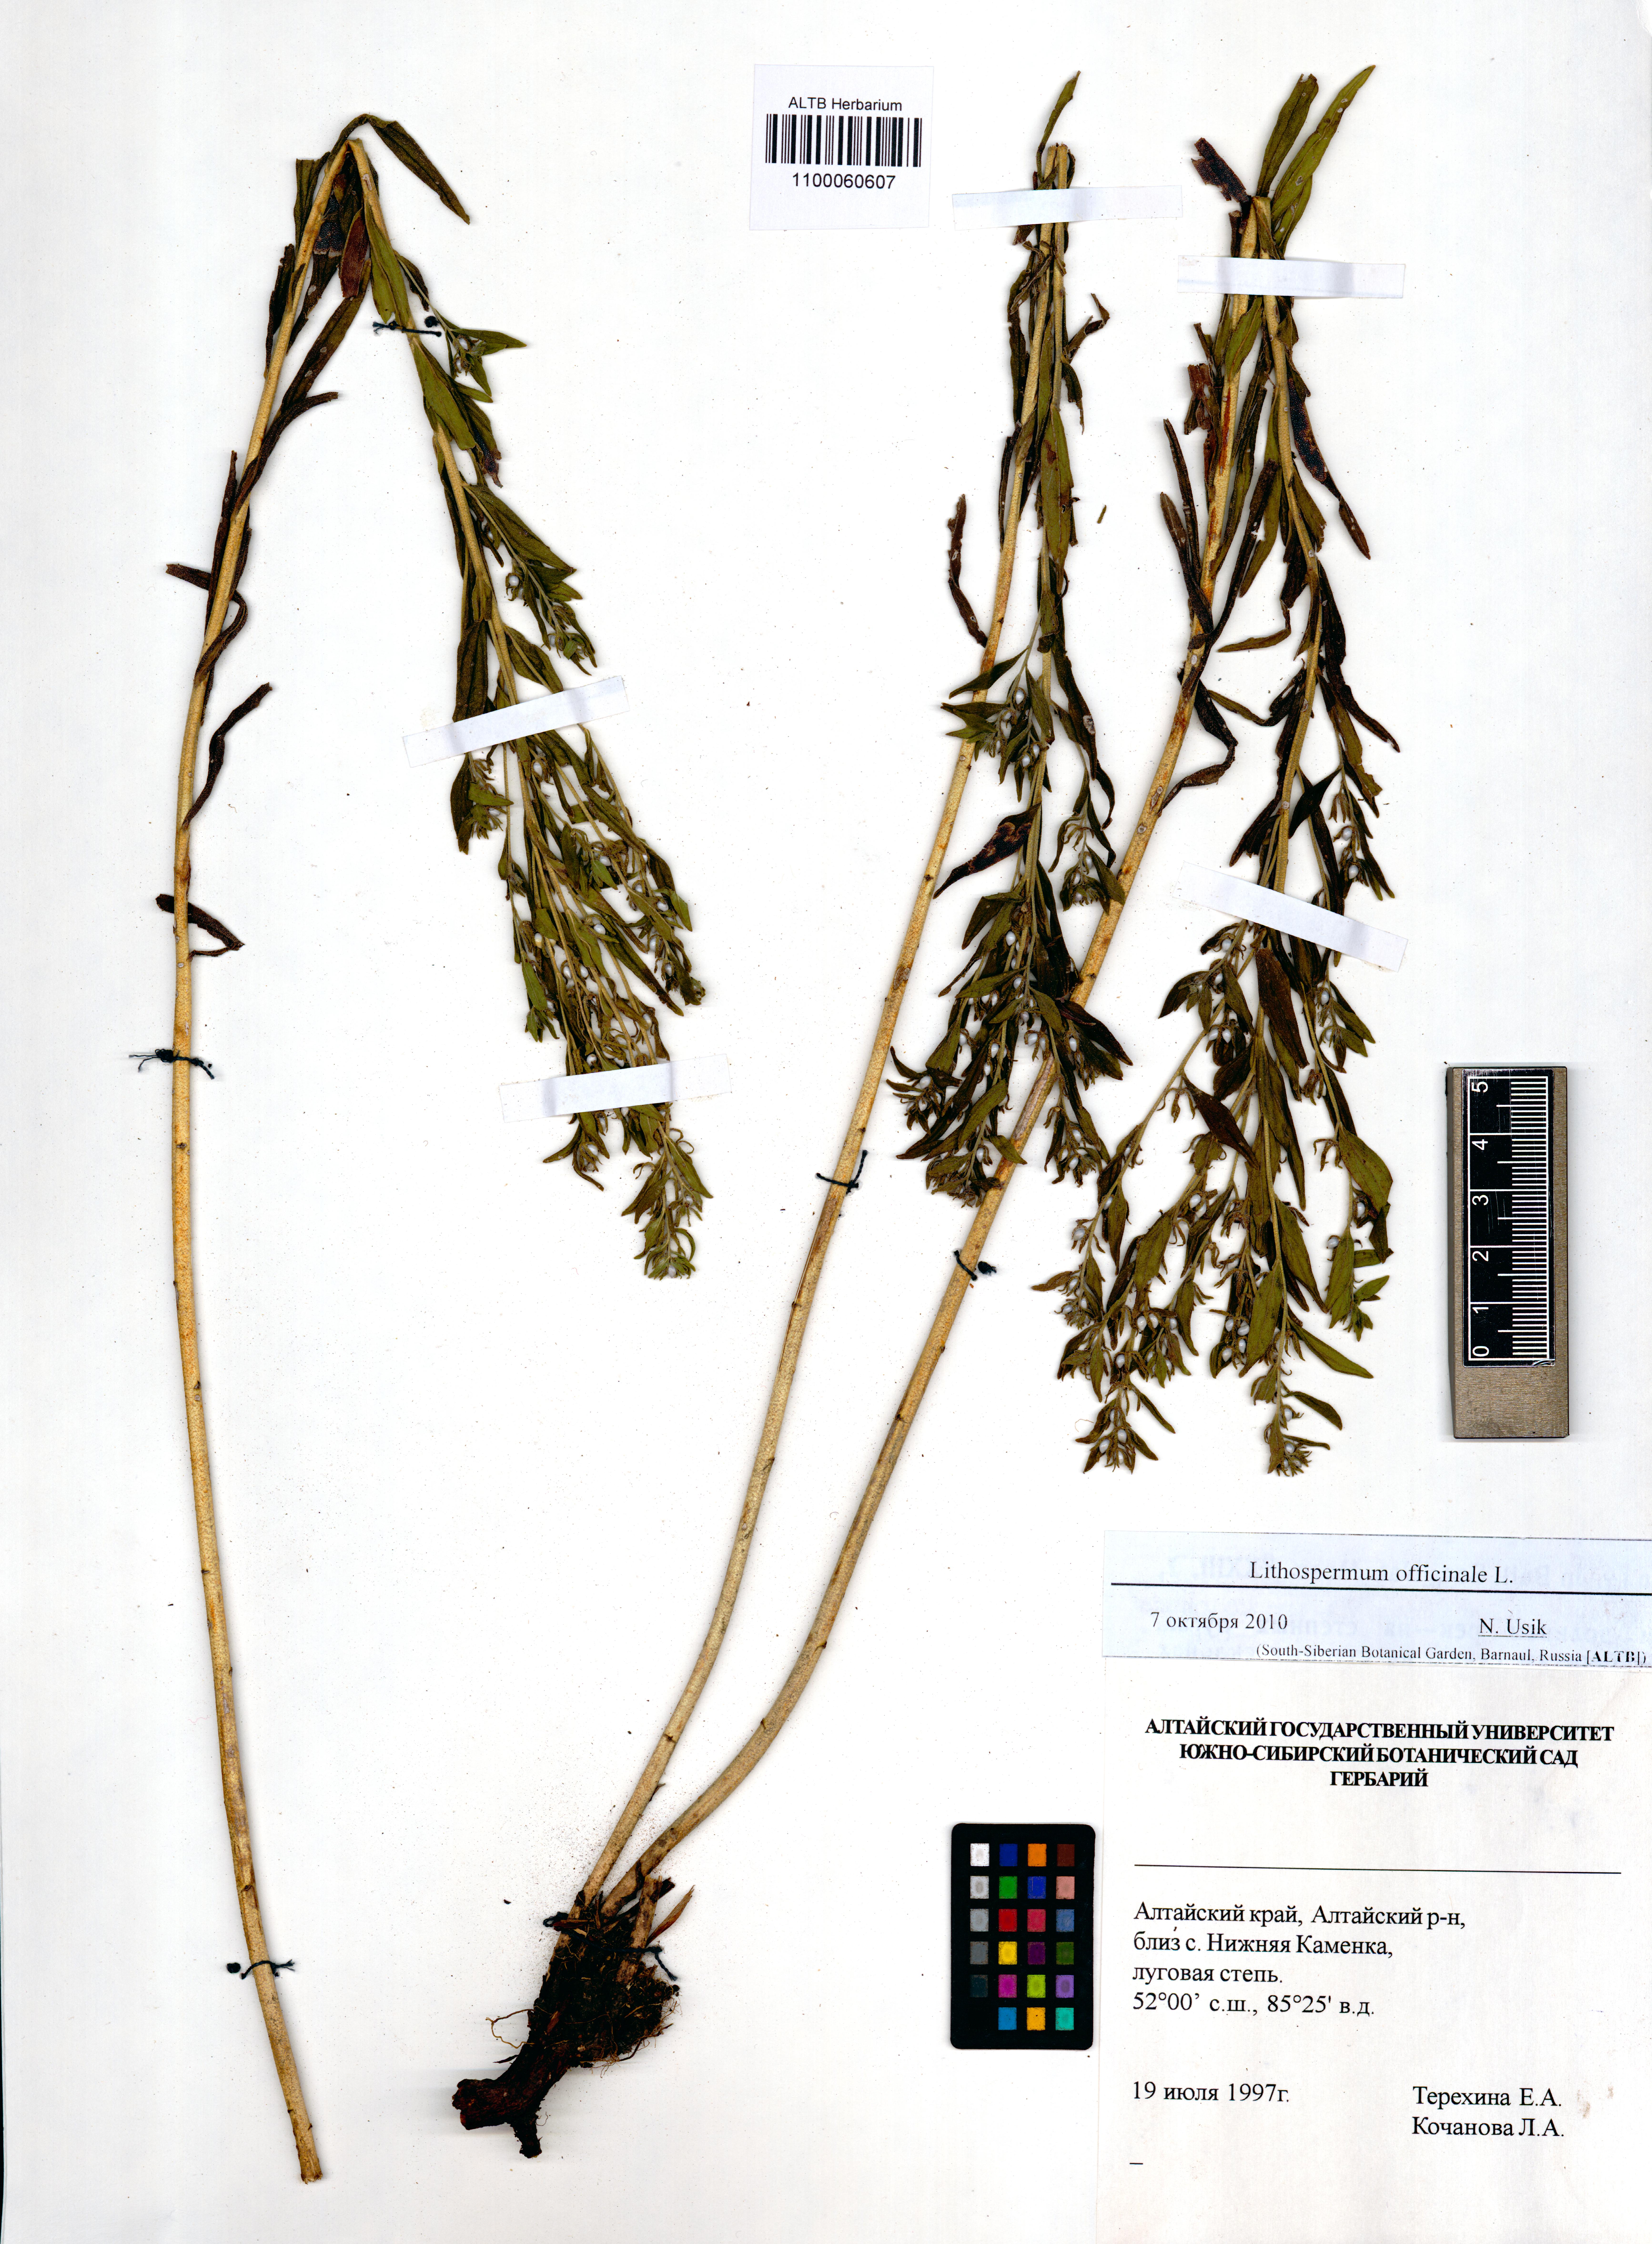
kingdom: Plantae
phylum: Tracheophyta
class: Magnoliopsida
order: Boraginales
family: Boraginaceae
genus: Lithospermum
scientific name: Lithospermum officinale
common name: Common gromwell
